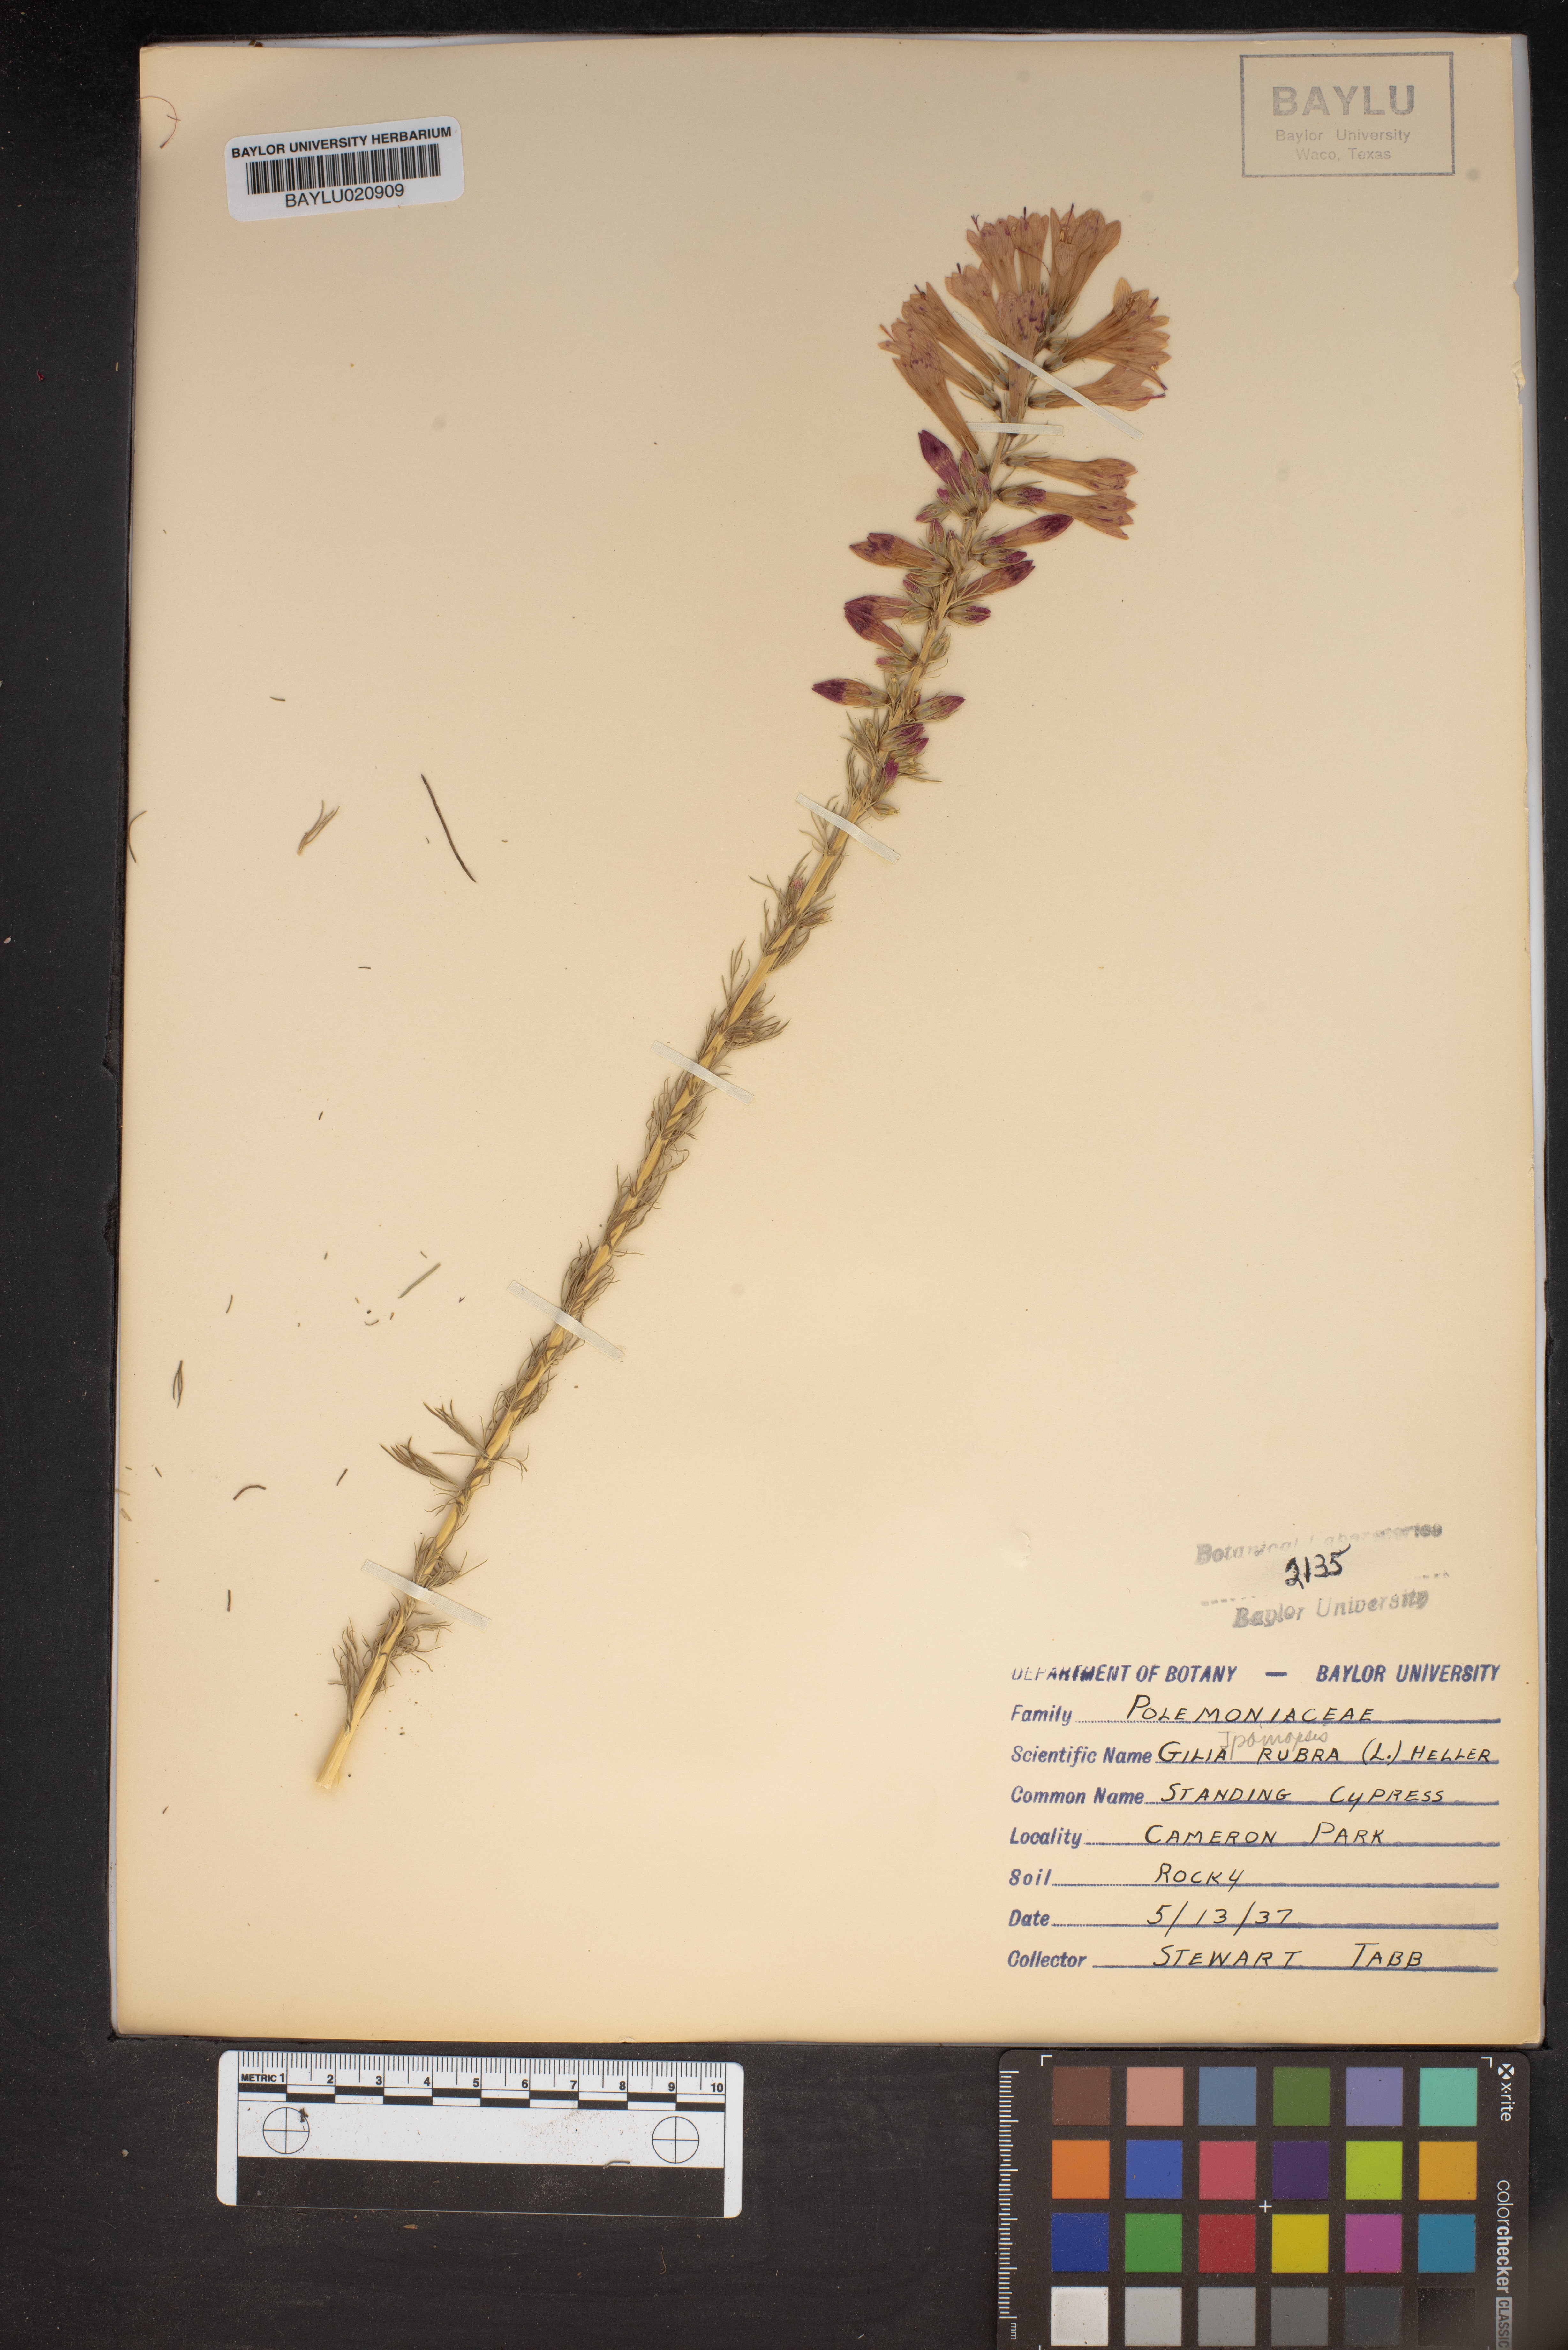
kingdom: Plantae
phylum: Tracheophyta
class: Magnoliopsida
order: Ericales
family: Polemoniaceae
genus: Ipomopsis
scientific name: Ipomopsis rubra
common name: Skyrocket
